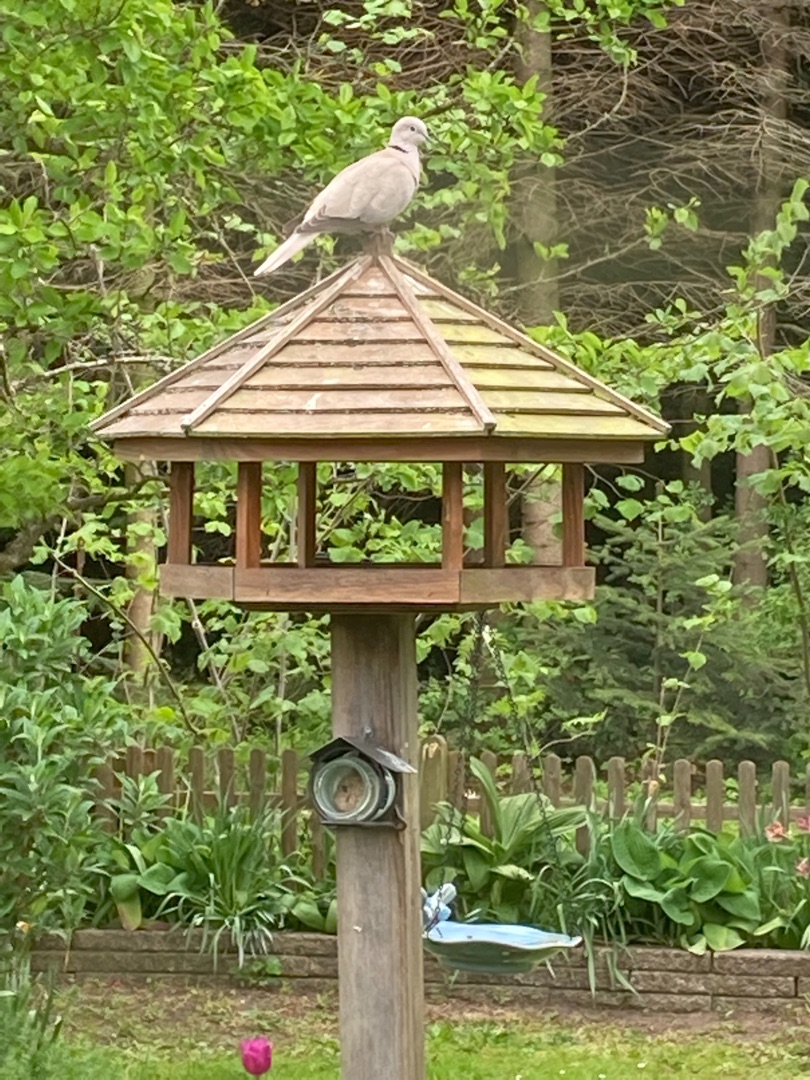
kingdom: Animalia
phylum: Chordata
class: Aves
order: Columbiformes
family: Columbidae
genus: Streptopelia
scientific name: Streptopelia decaocto
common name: Tyrkerdue
